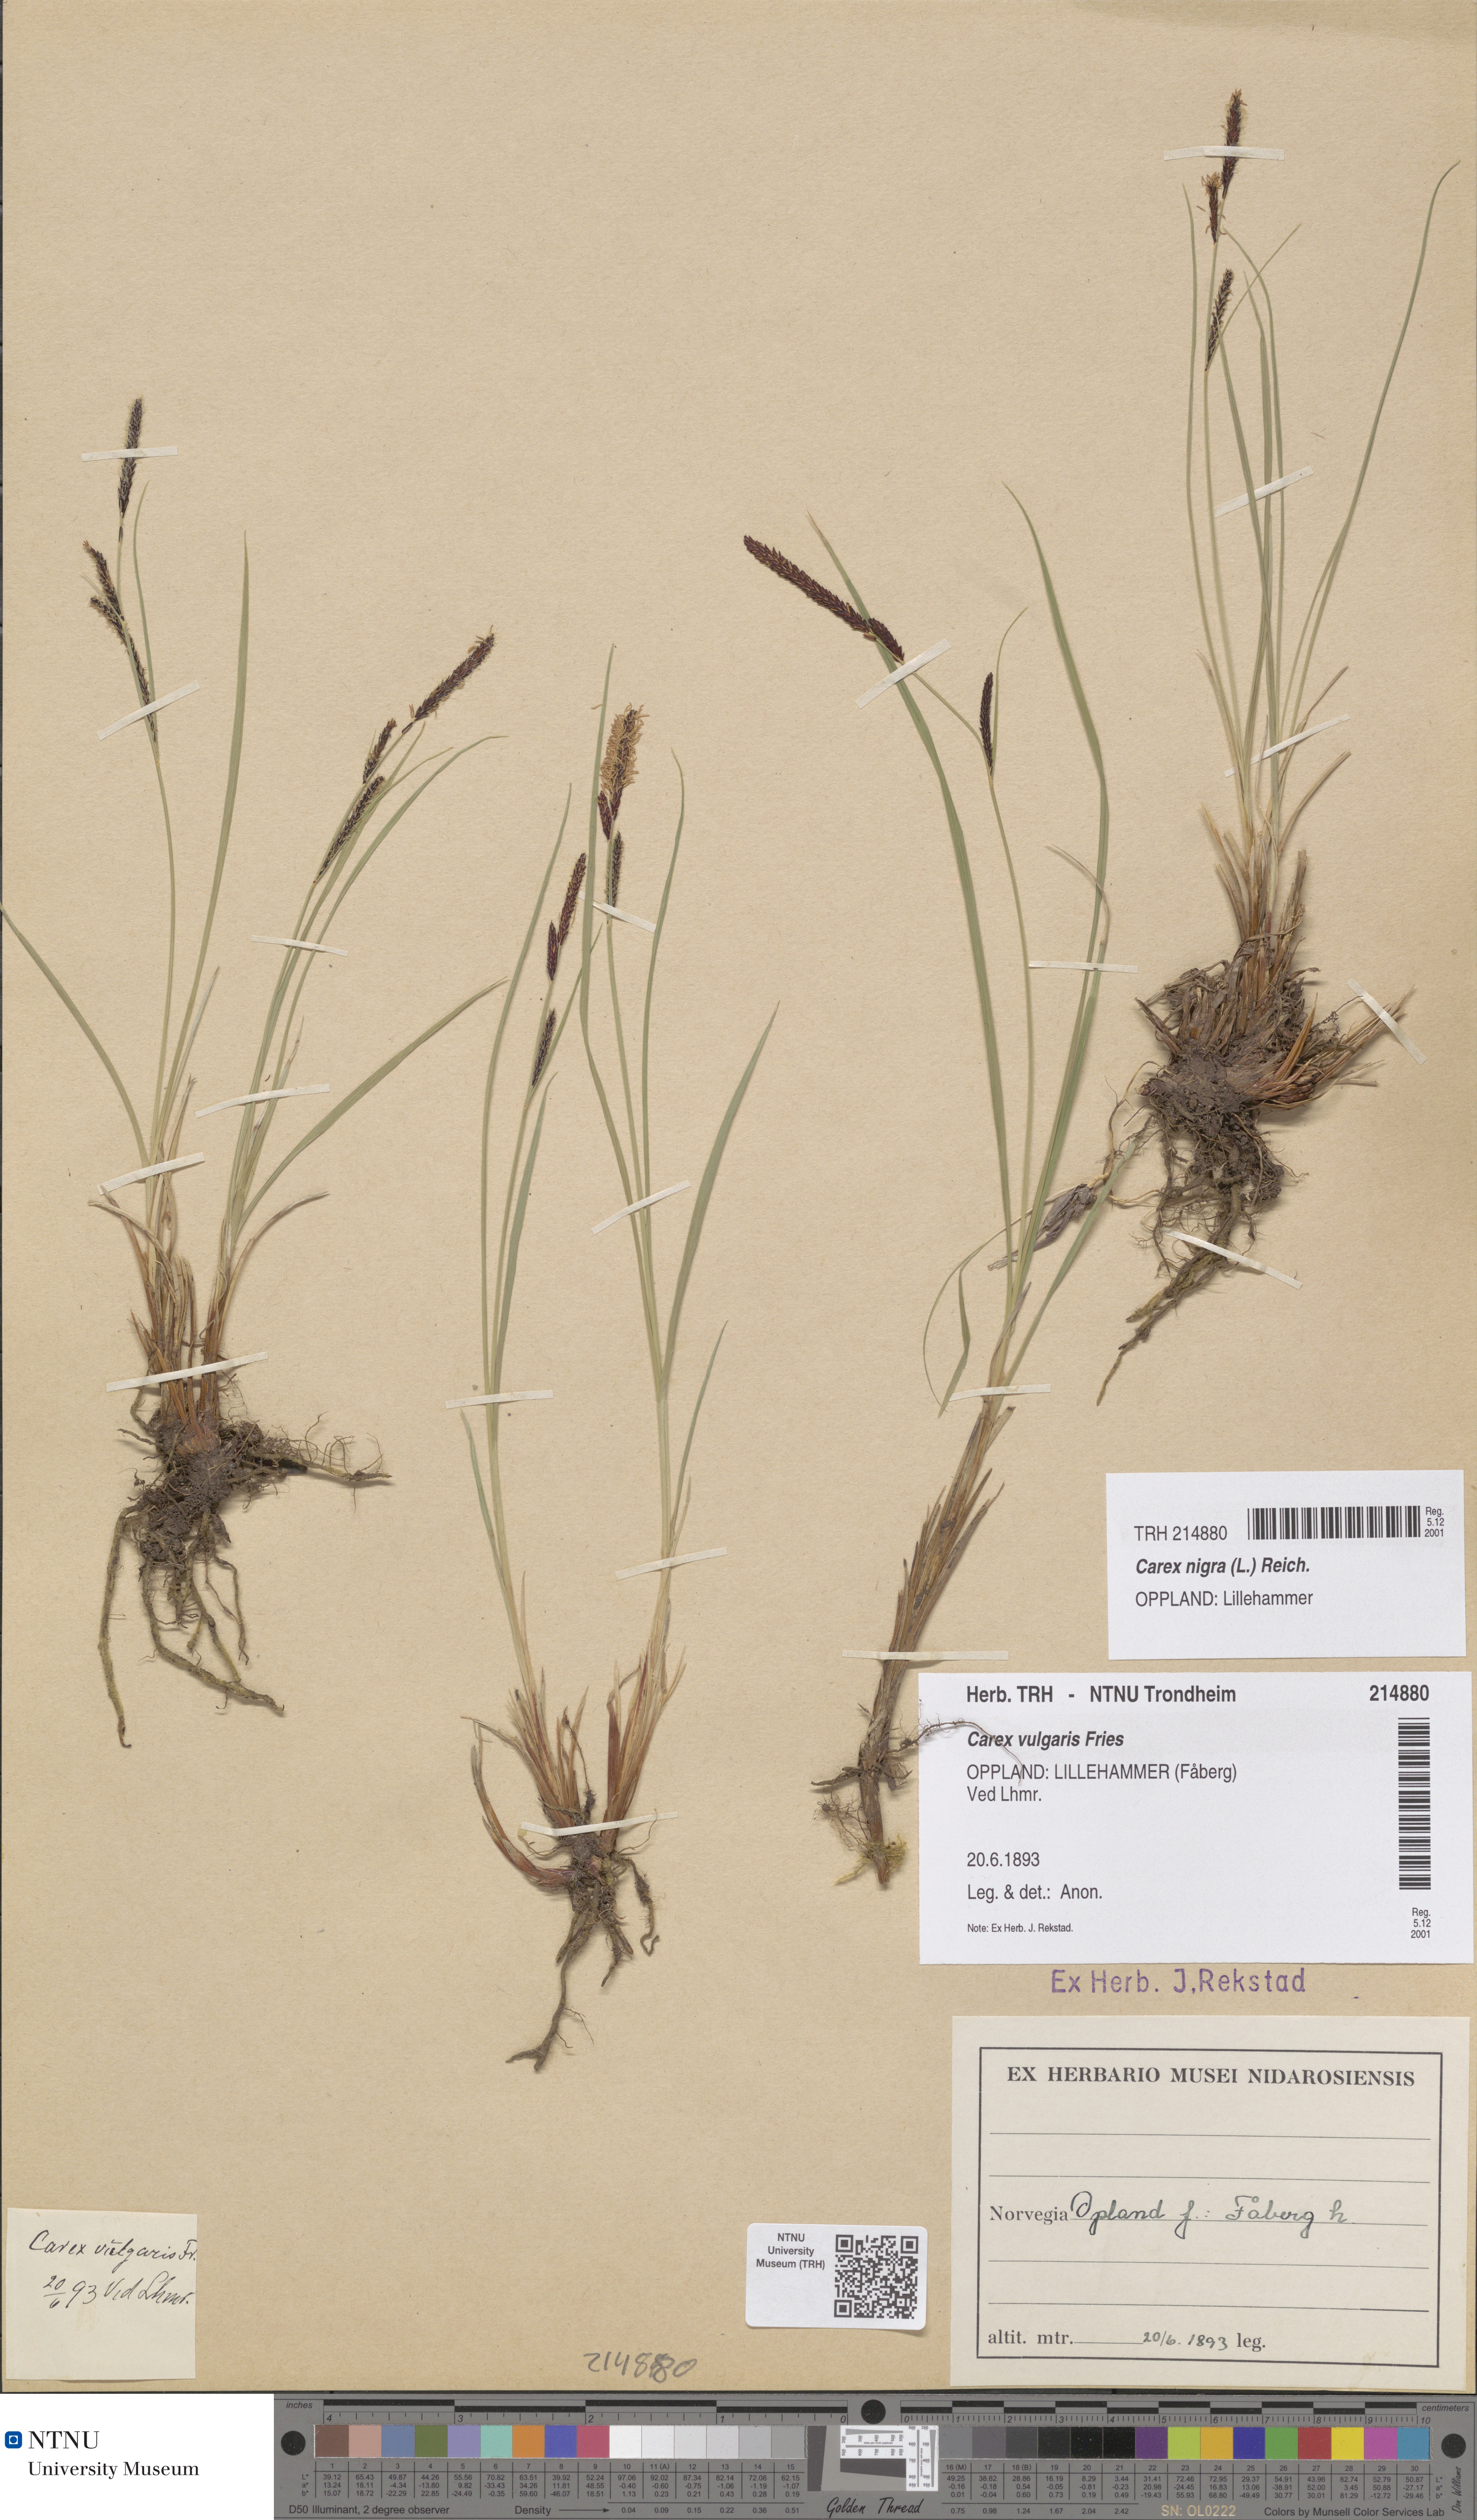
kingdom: Plantae
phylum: Tracheophyta
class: Liliopsida
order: Poales
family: Cyperaceae
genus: Carex
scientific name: Carex nigra
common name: Common sedge
